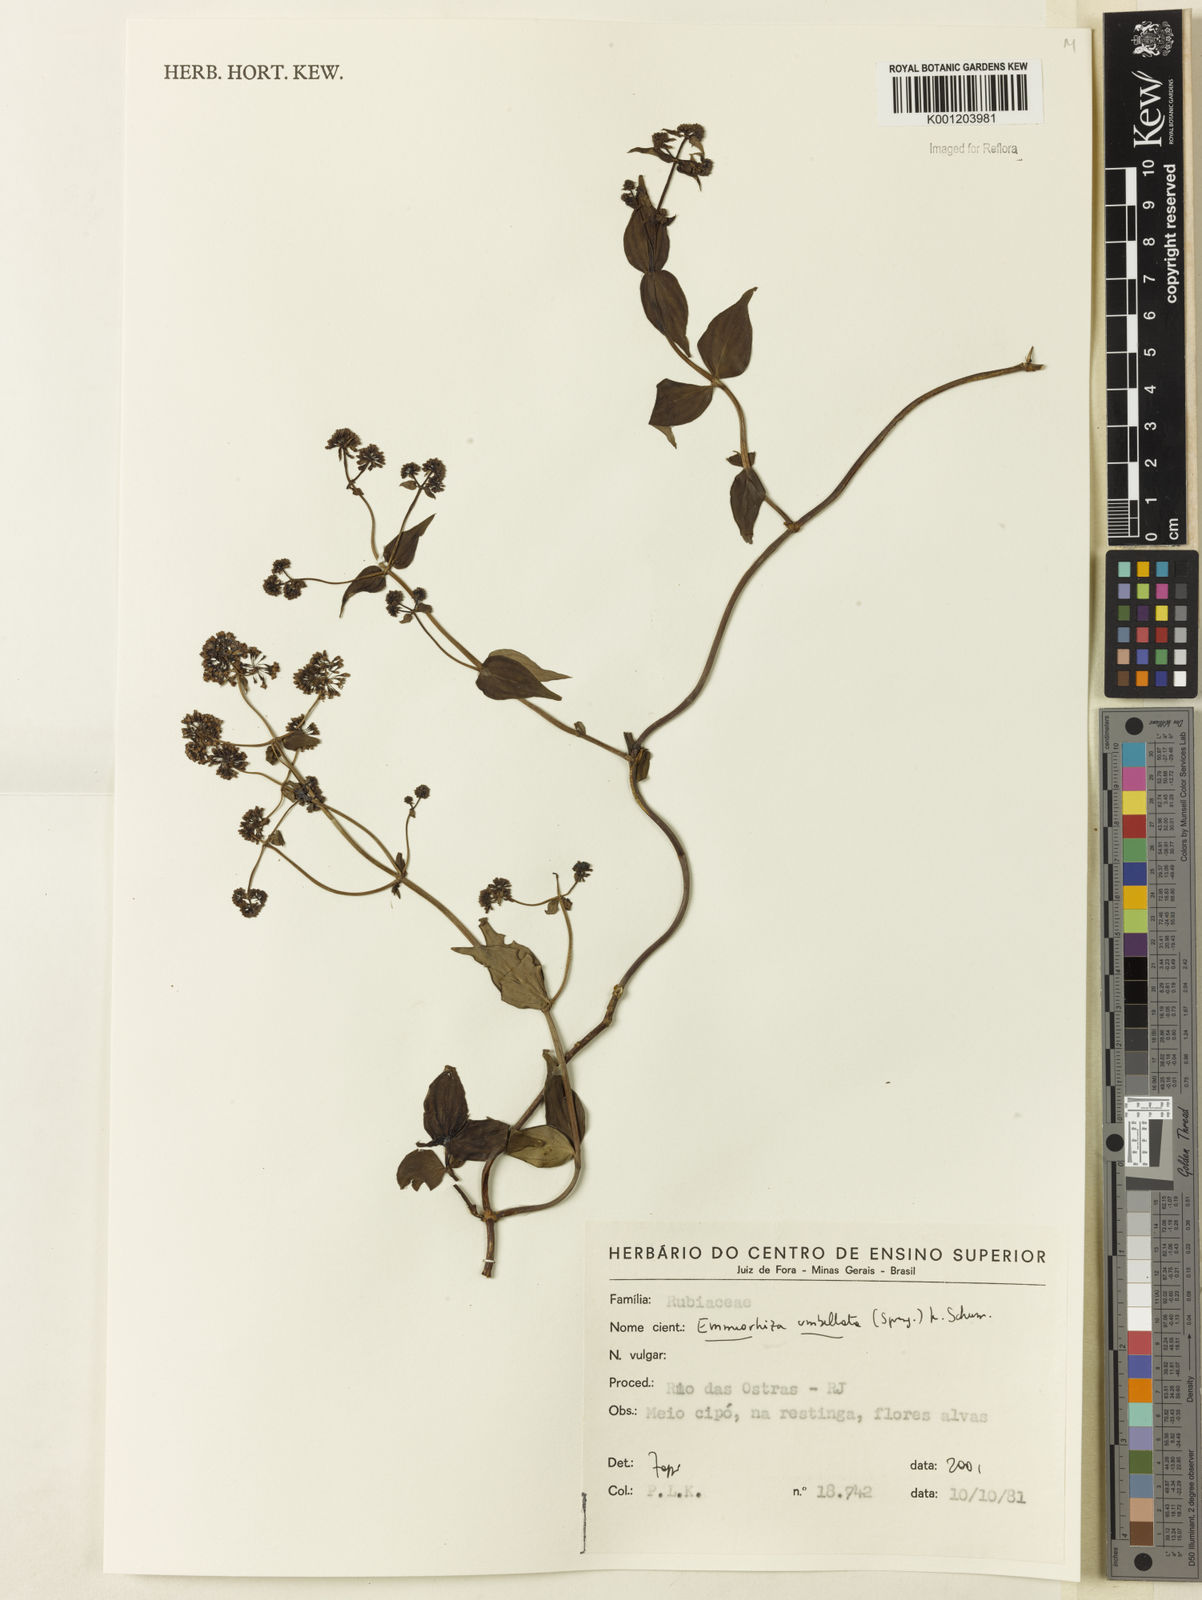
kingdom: Plantae
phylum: Tracheophyta
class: Magnoliopsida
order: Gentianales
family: Rubiaceae
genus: Emmeorhiza
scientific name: Emmeorhiza umbellata
